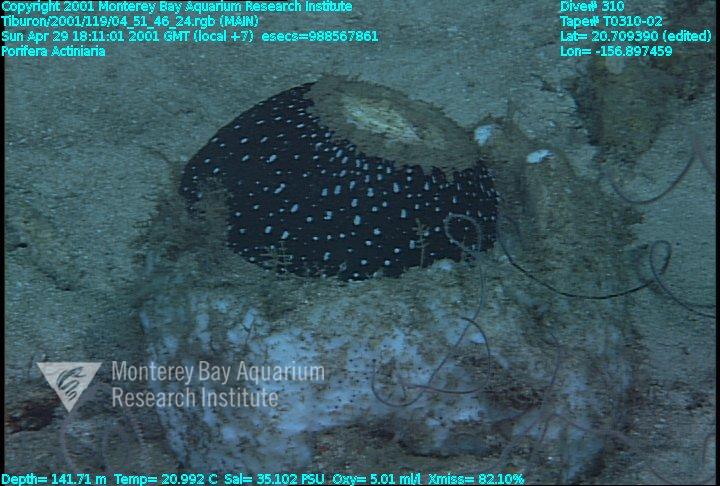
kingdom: Animalia
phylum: Porifera
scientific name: Porifera
